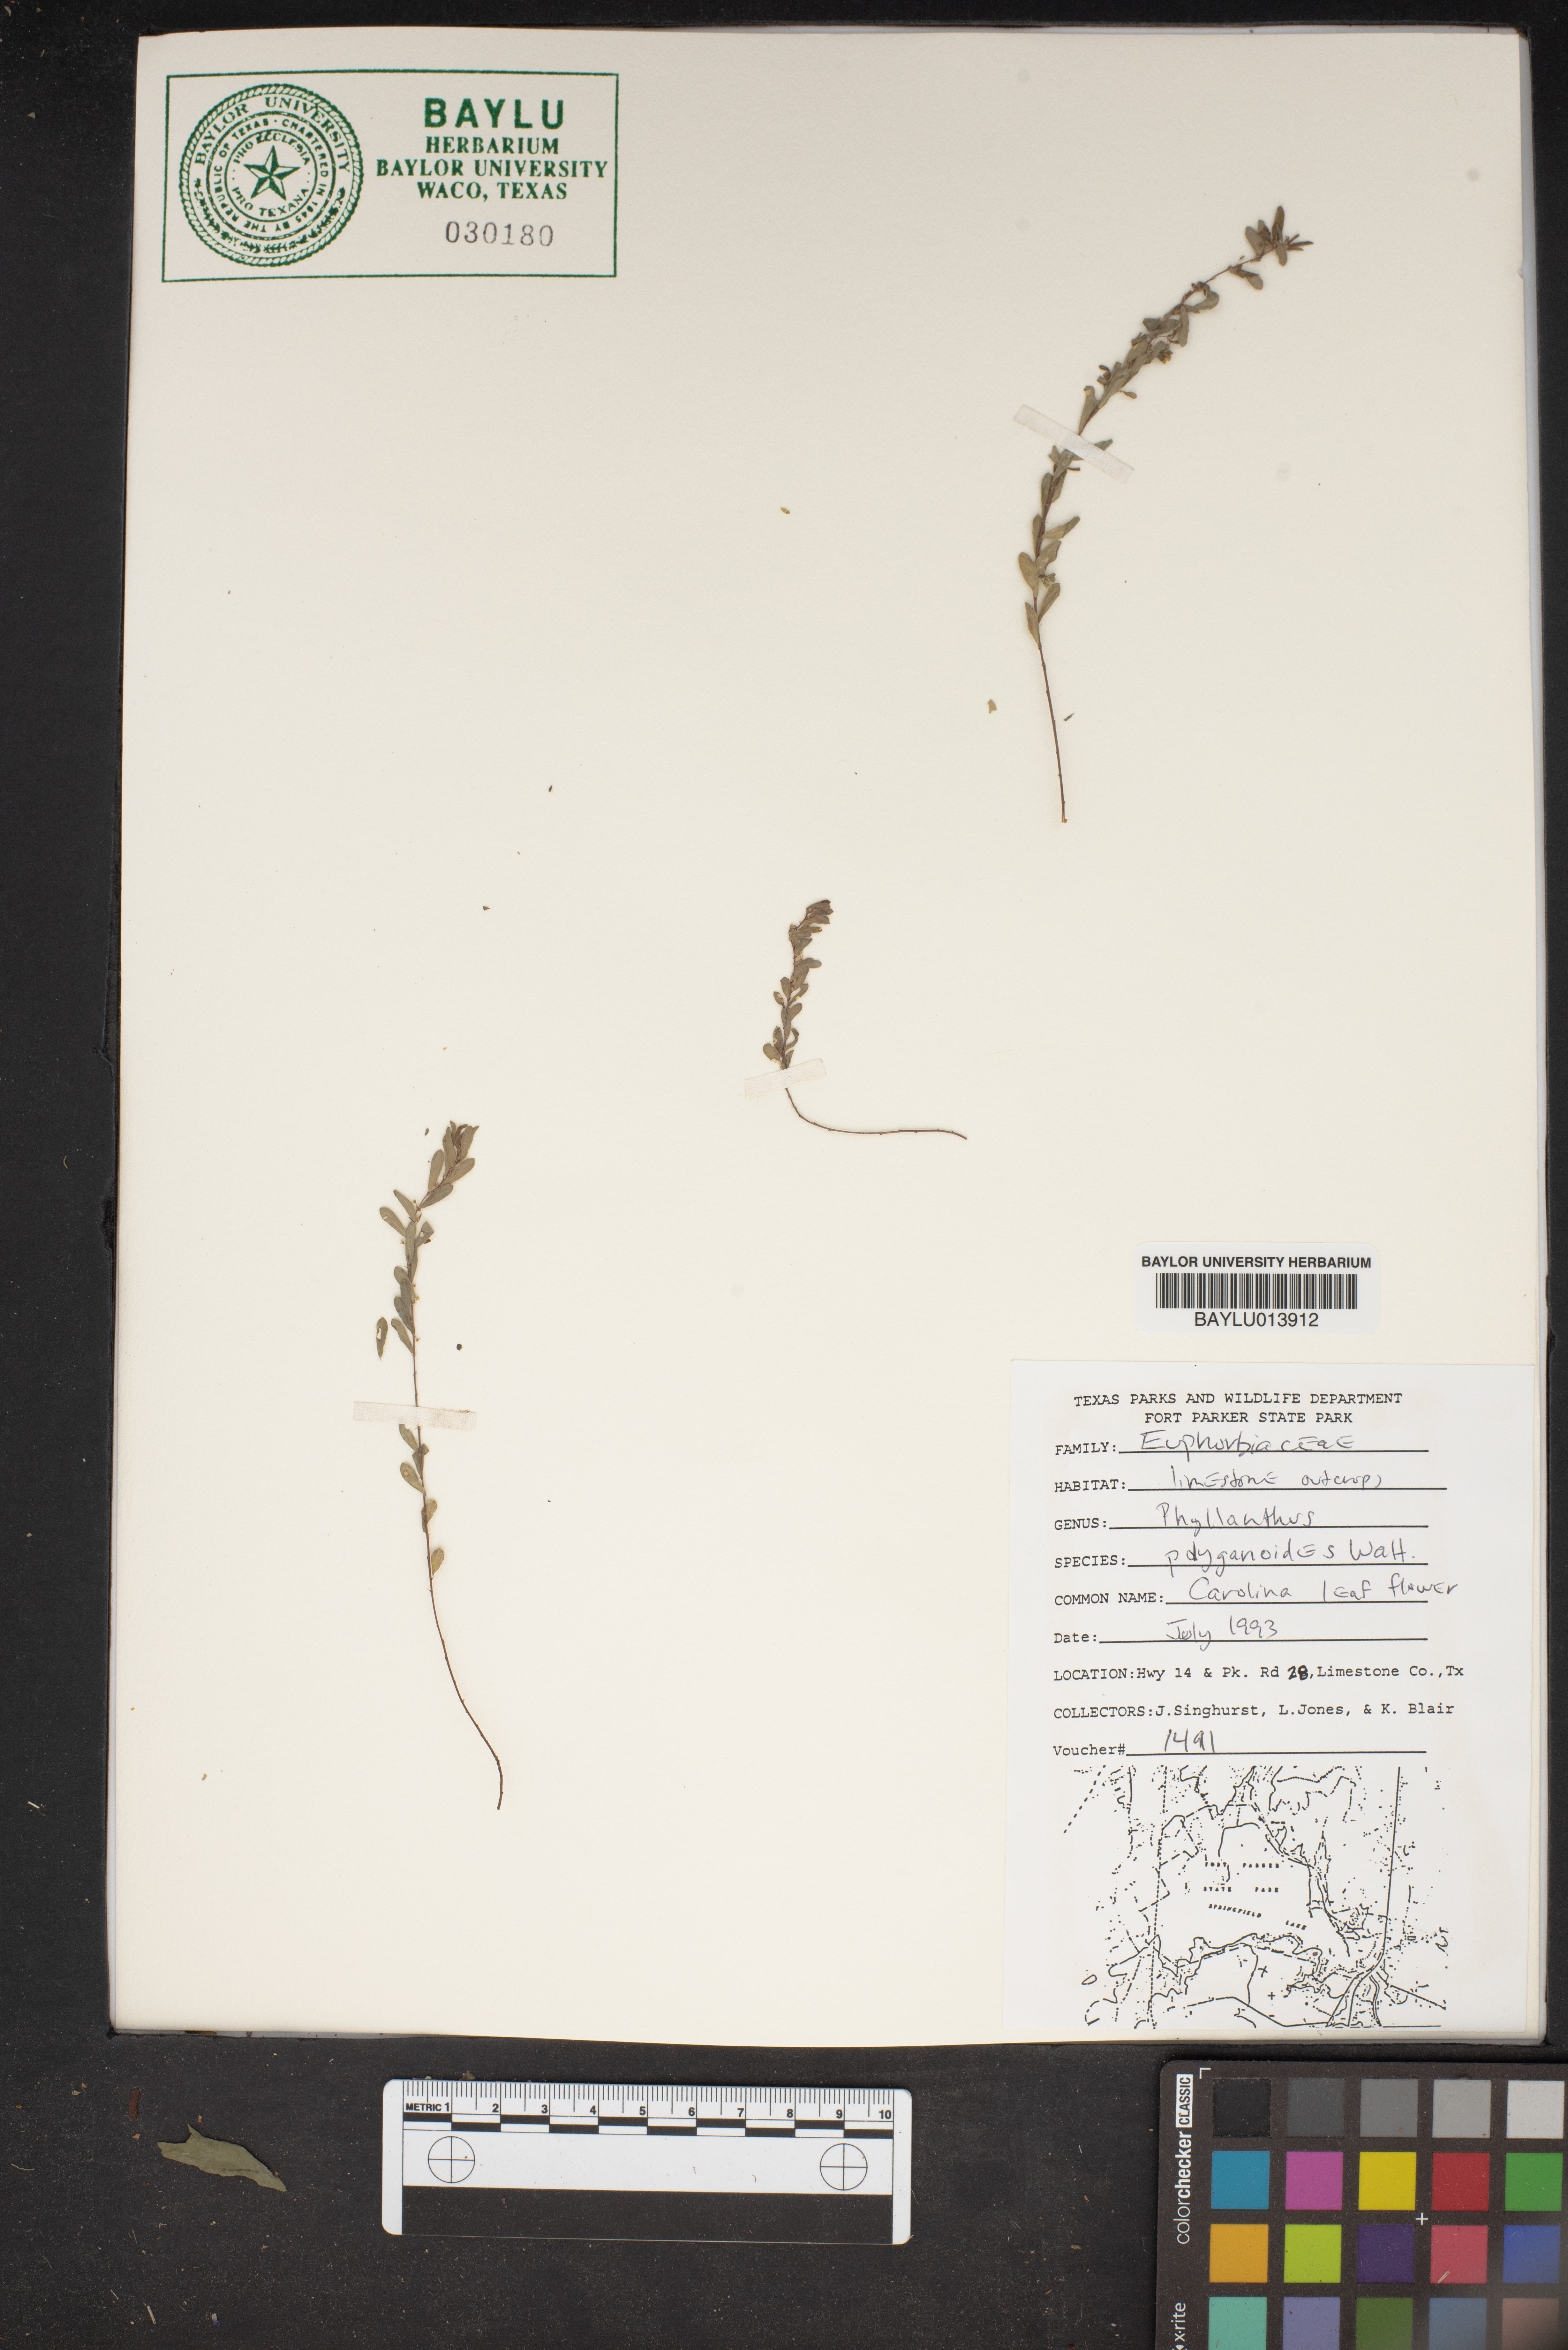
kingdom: Plantae
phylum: Tracheophyta
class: Magnoliopsida
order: Malpighiales
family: Phyllanthaceae
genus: Phyllanthus
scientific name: Phyllanthus polygonoides
